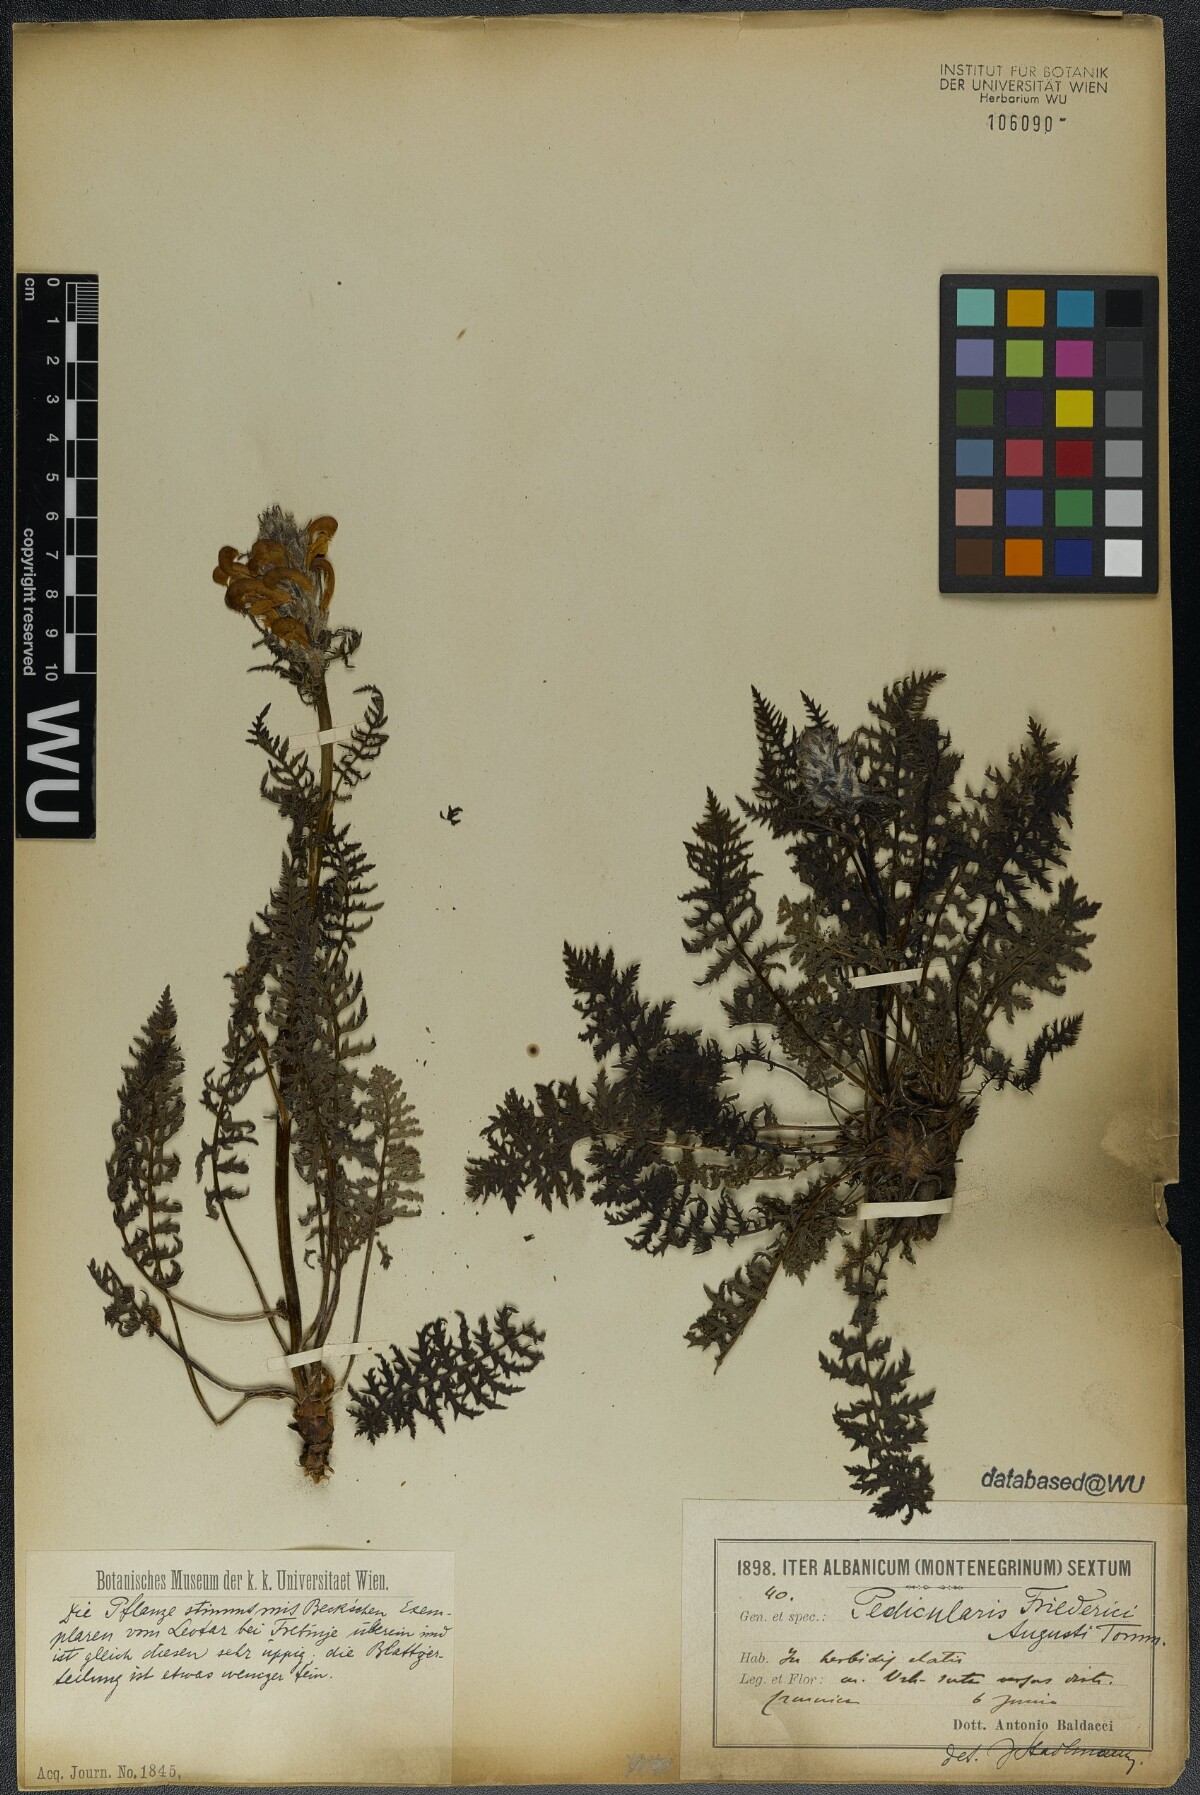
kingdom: Plantae
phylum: Tracheophyta
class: Magnoliopsida
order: Lamiales
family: Orobanchaceae
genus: Pedicularis
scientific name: Pedicularis friderici-augusti
